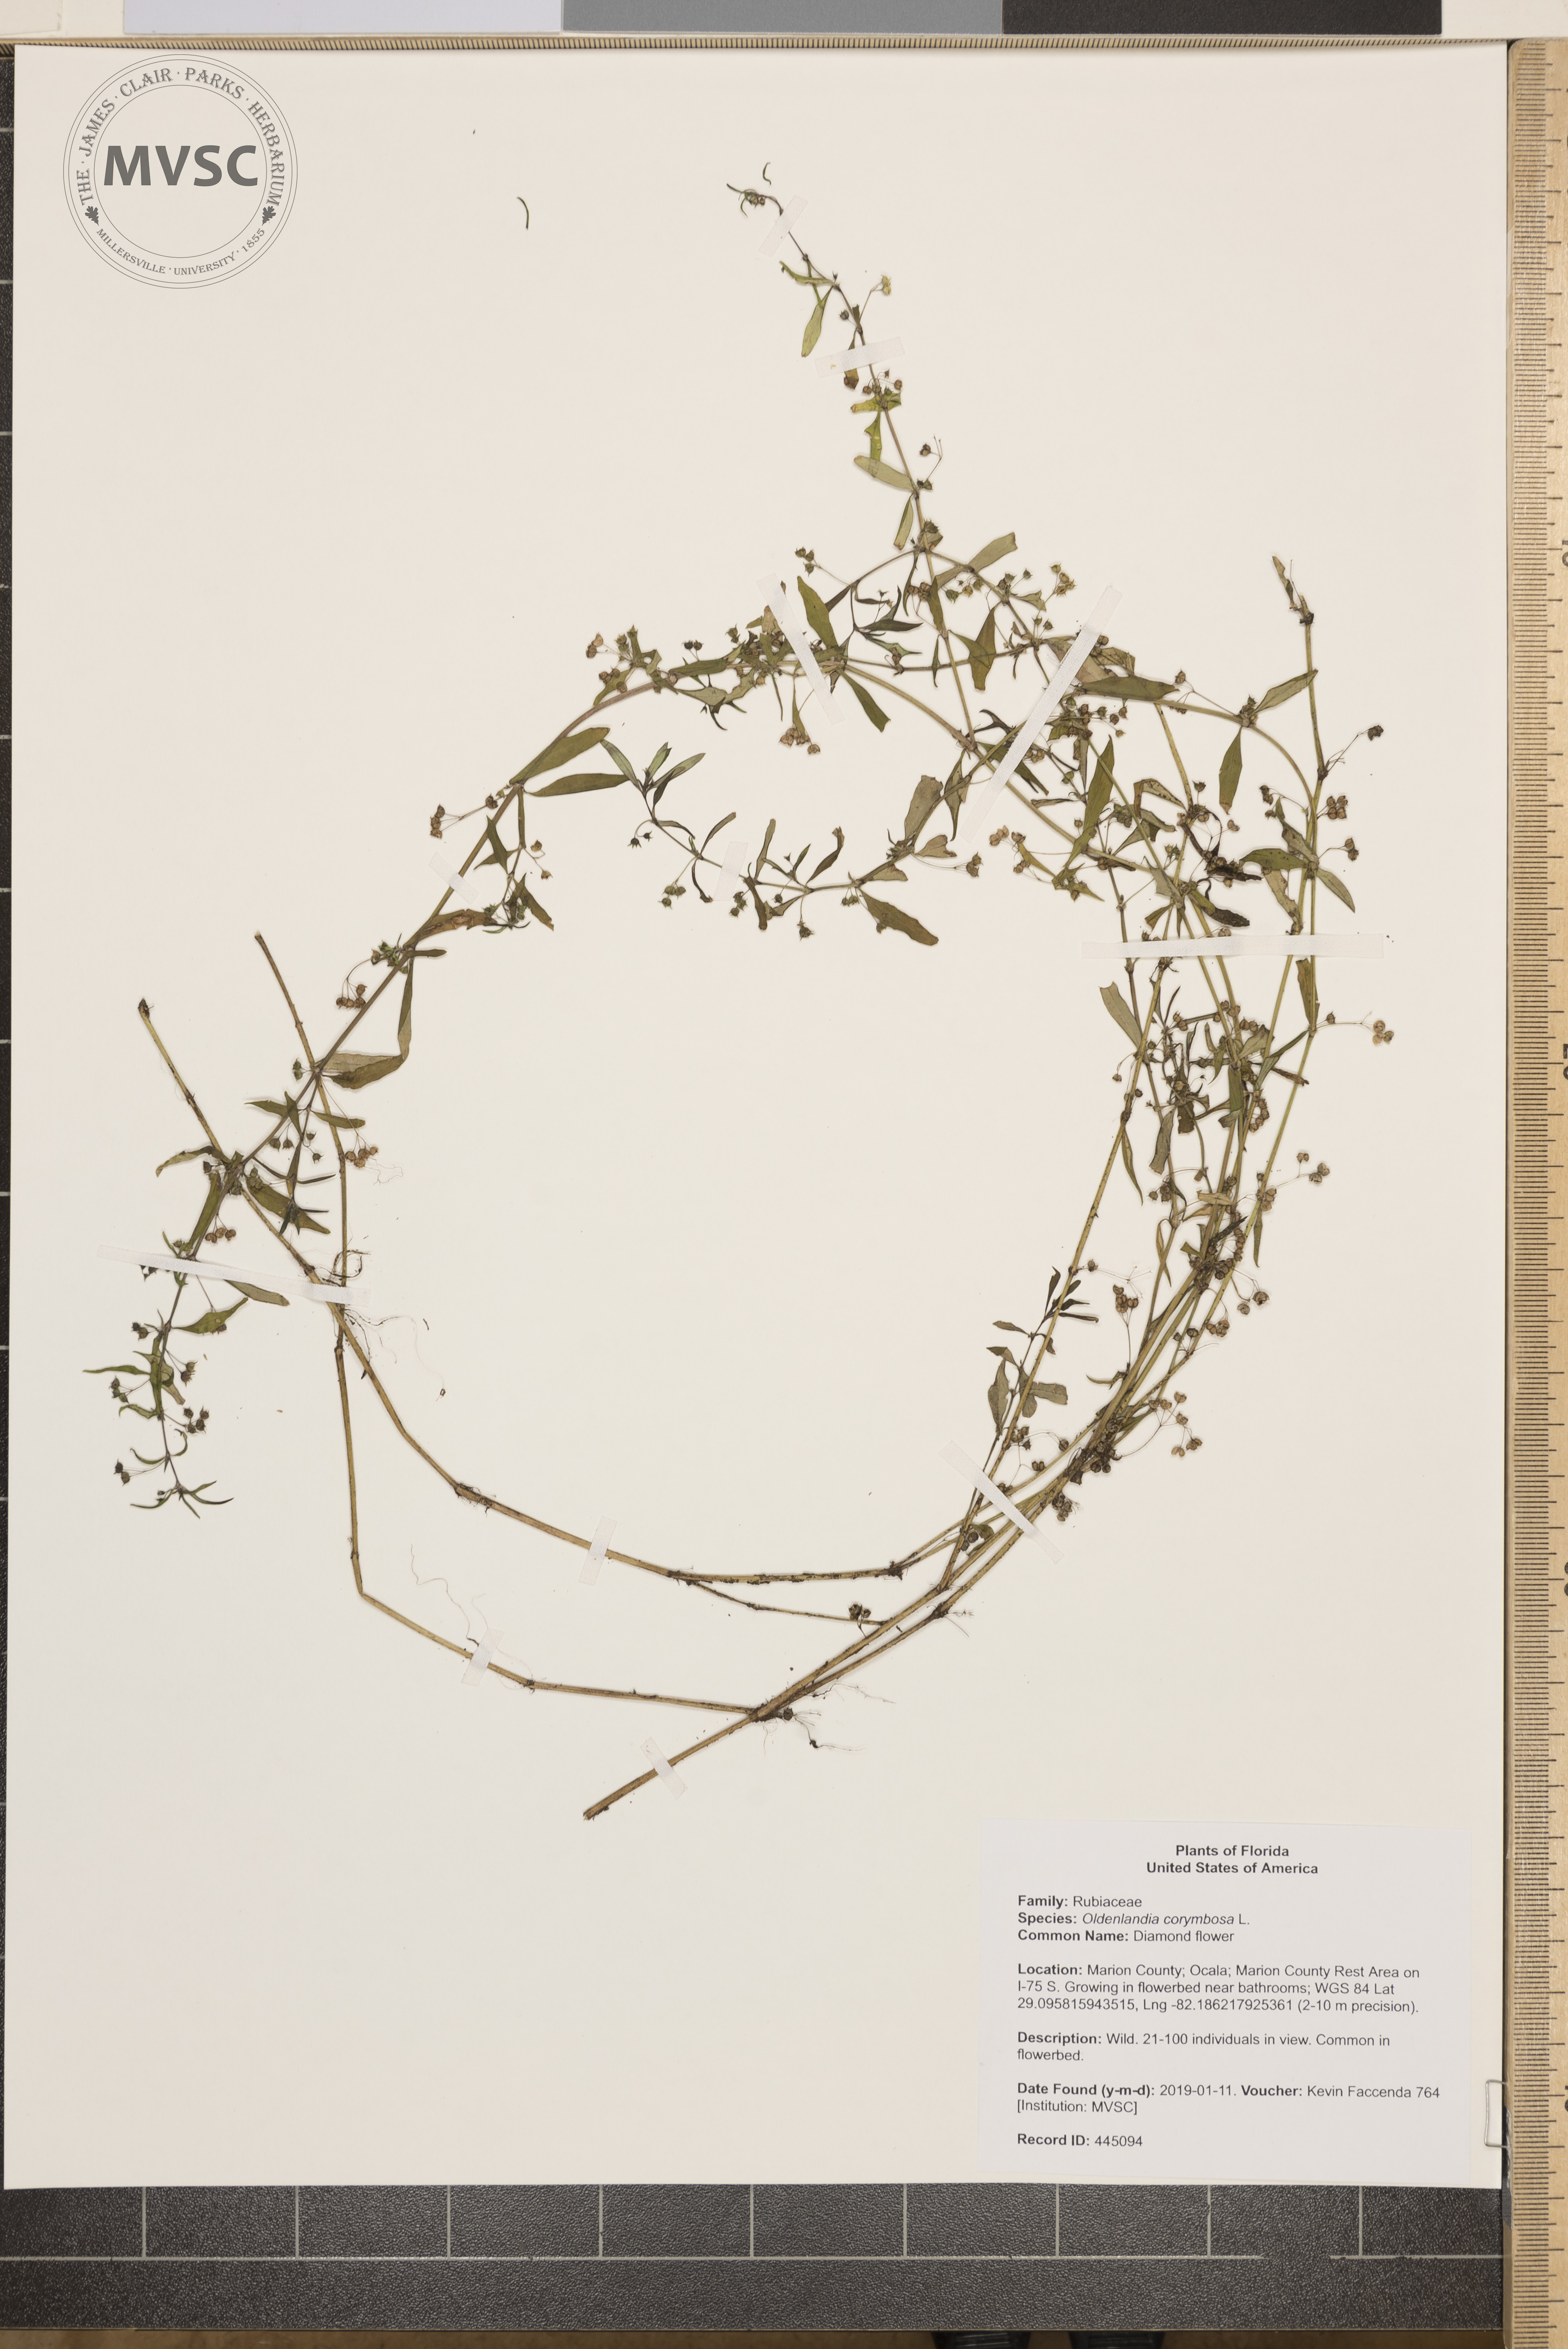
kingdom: Plantae
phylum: Tracheophyta
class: Magnoliopsida
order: Gentianales
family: Rubiaceae
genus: Oldenlandia
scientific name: Oldenlandia corymbosa
